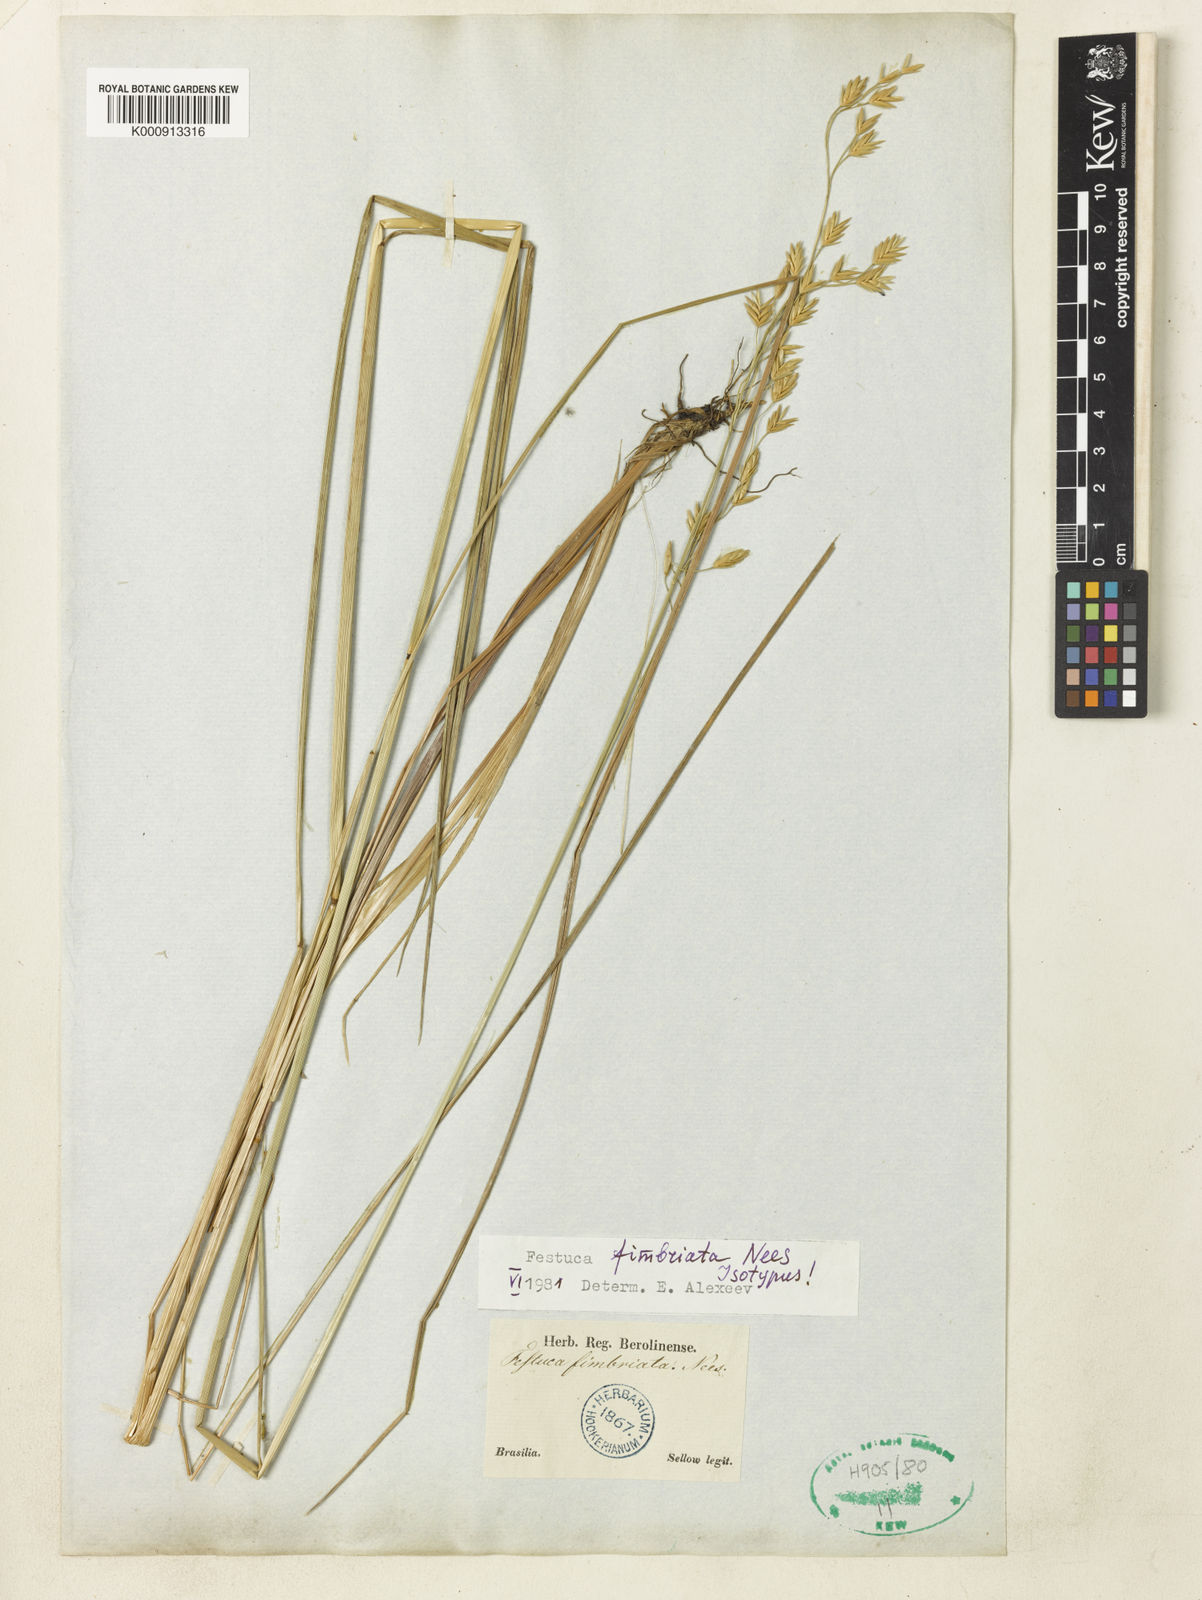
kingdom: Plantae
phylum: Tracheophyta
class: Liliopsida
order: Poales
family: Poaceae
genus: Festuca
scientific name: Festuca fimbriata
